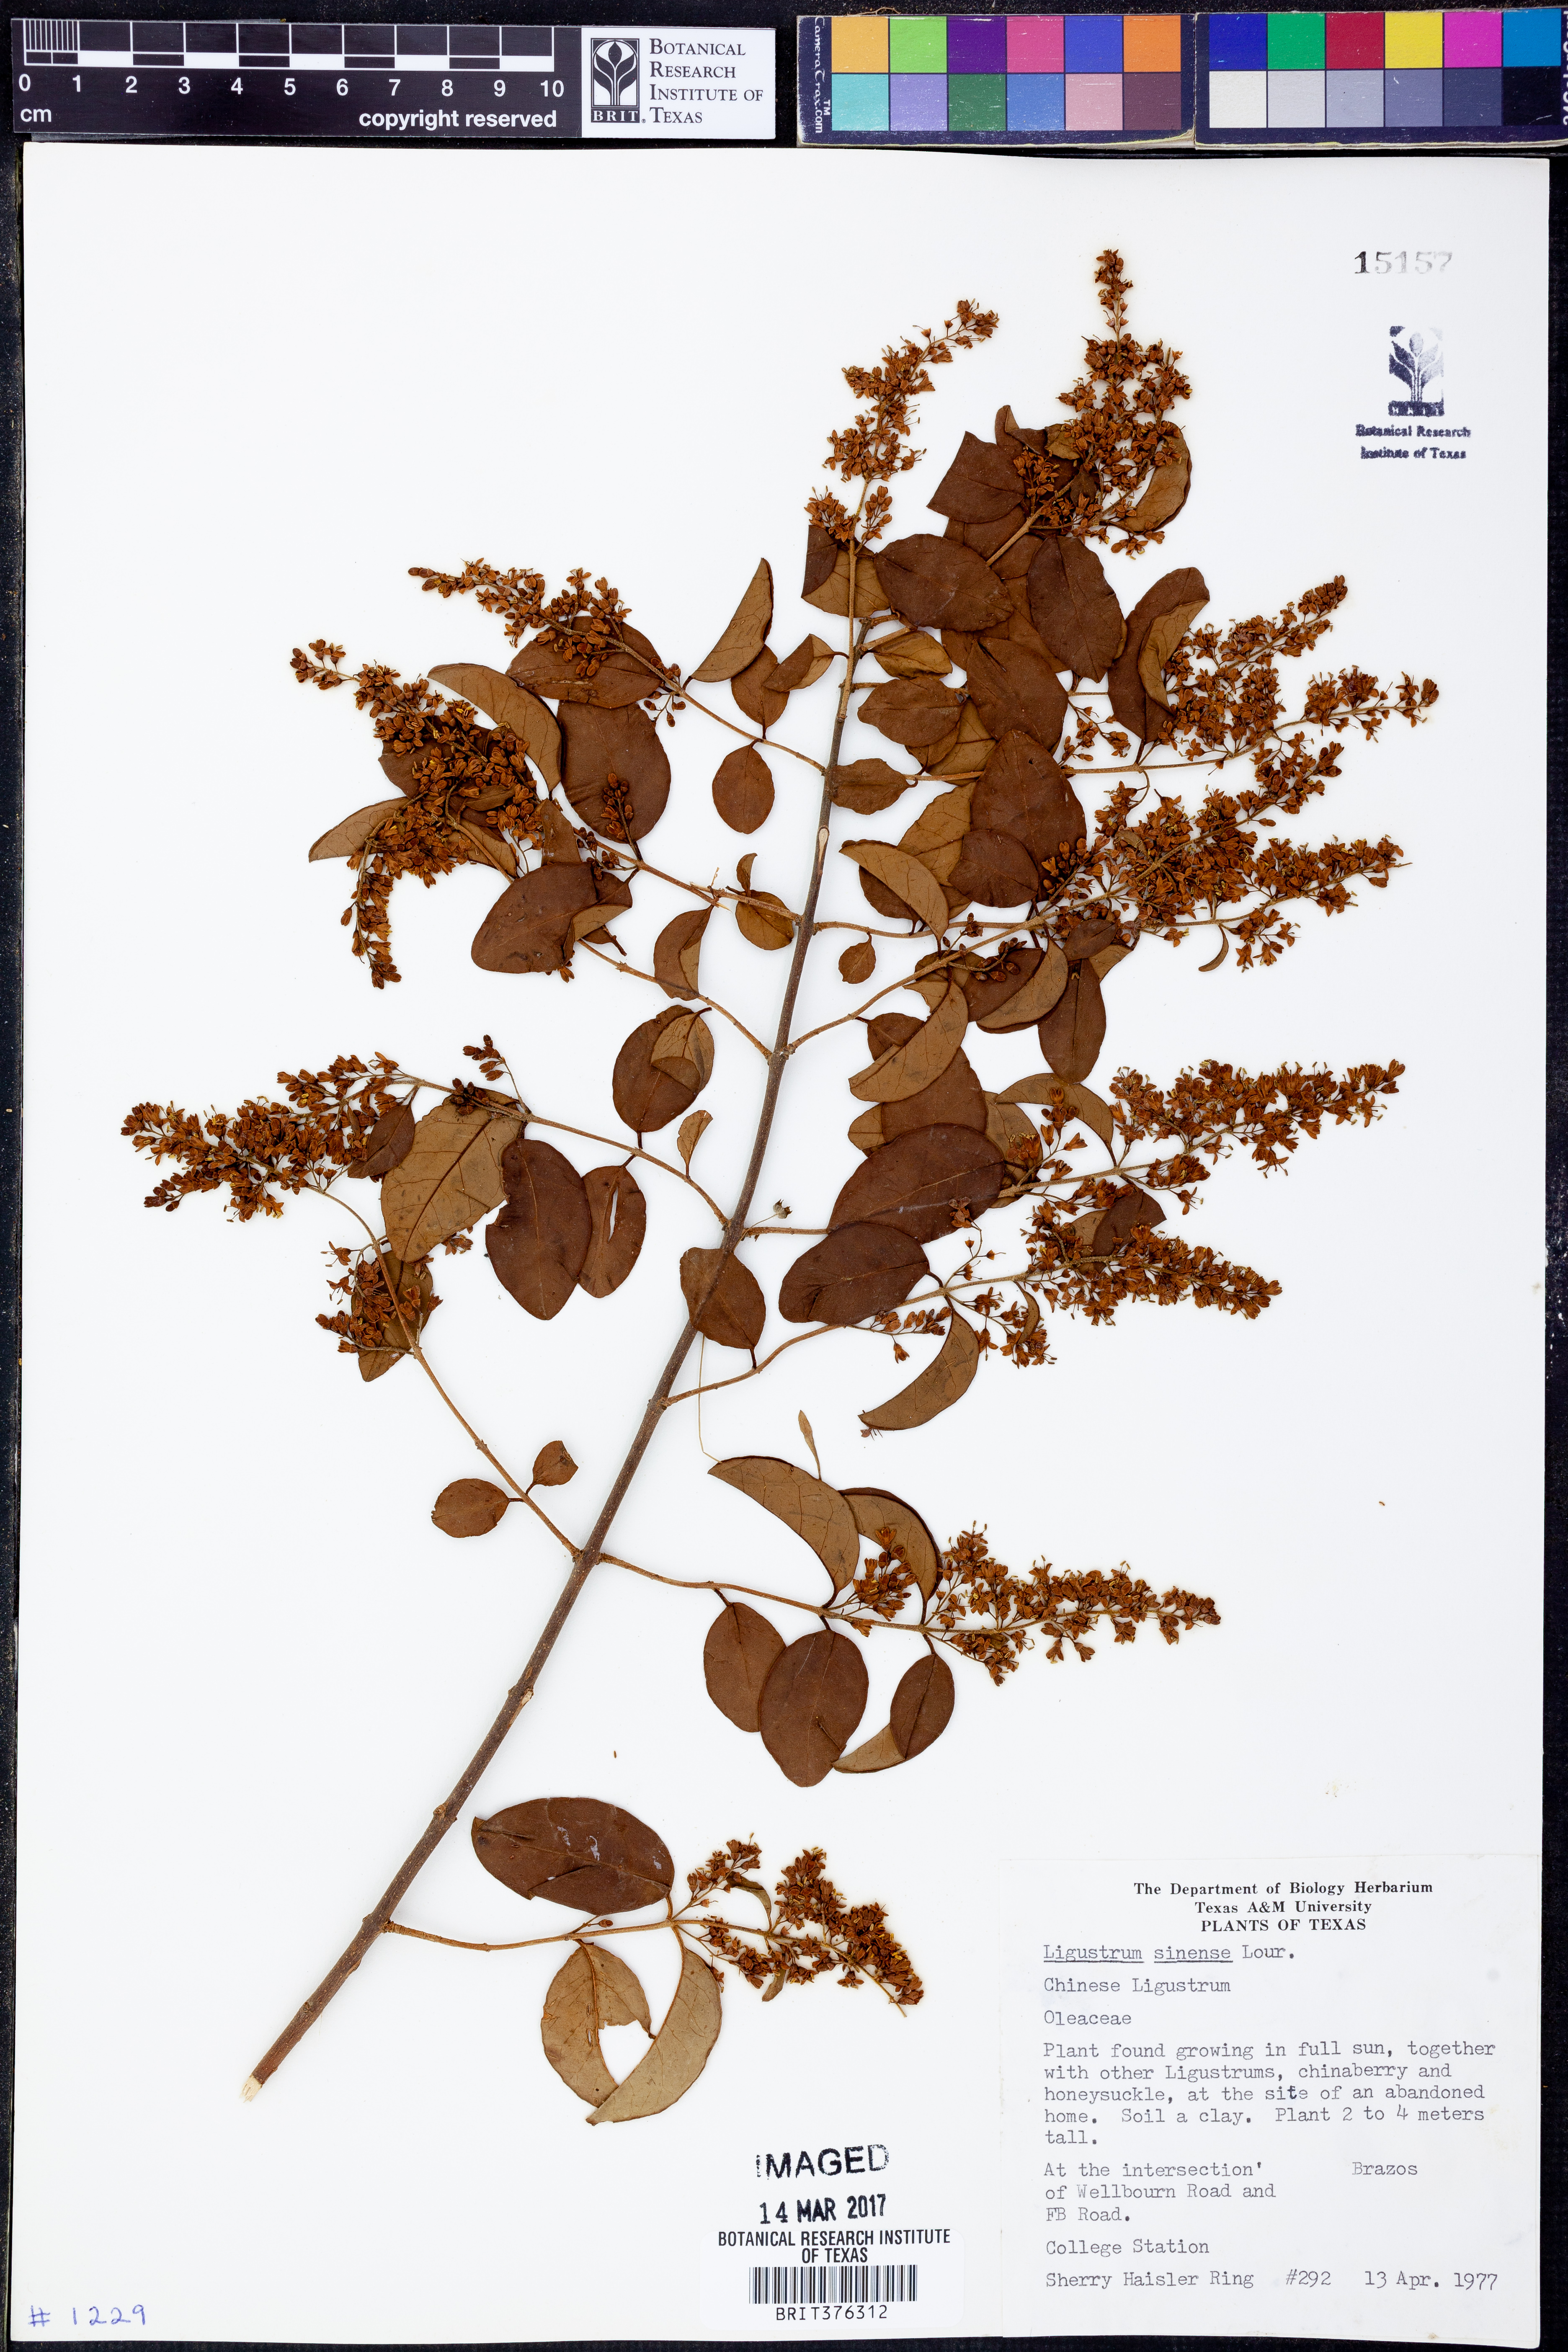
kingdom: Plantae
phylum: Tracheophyta
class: Magnoliopsida
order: Lamiales
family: Oleaceae
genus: Ligustrum
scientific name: Ligustrum sinense
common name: Chinese privet
